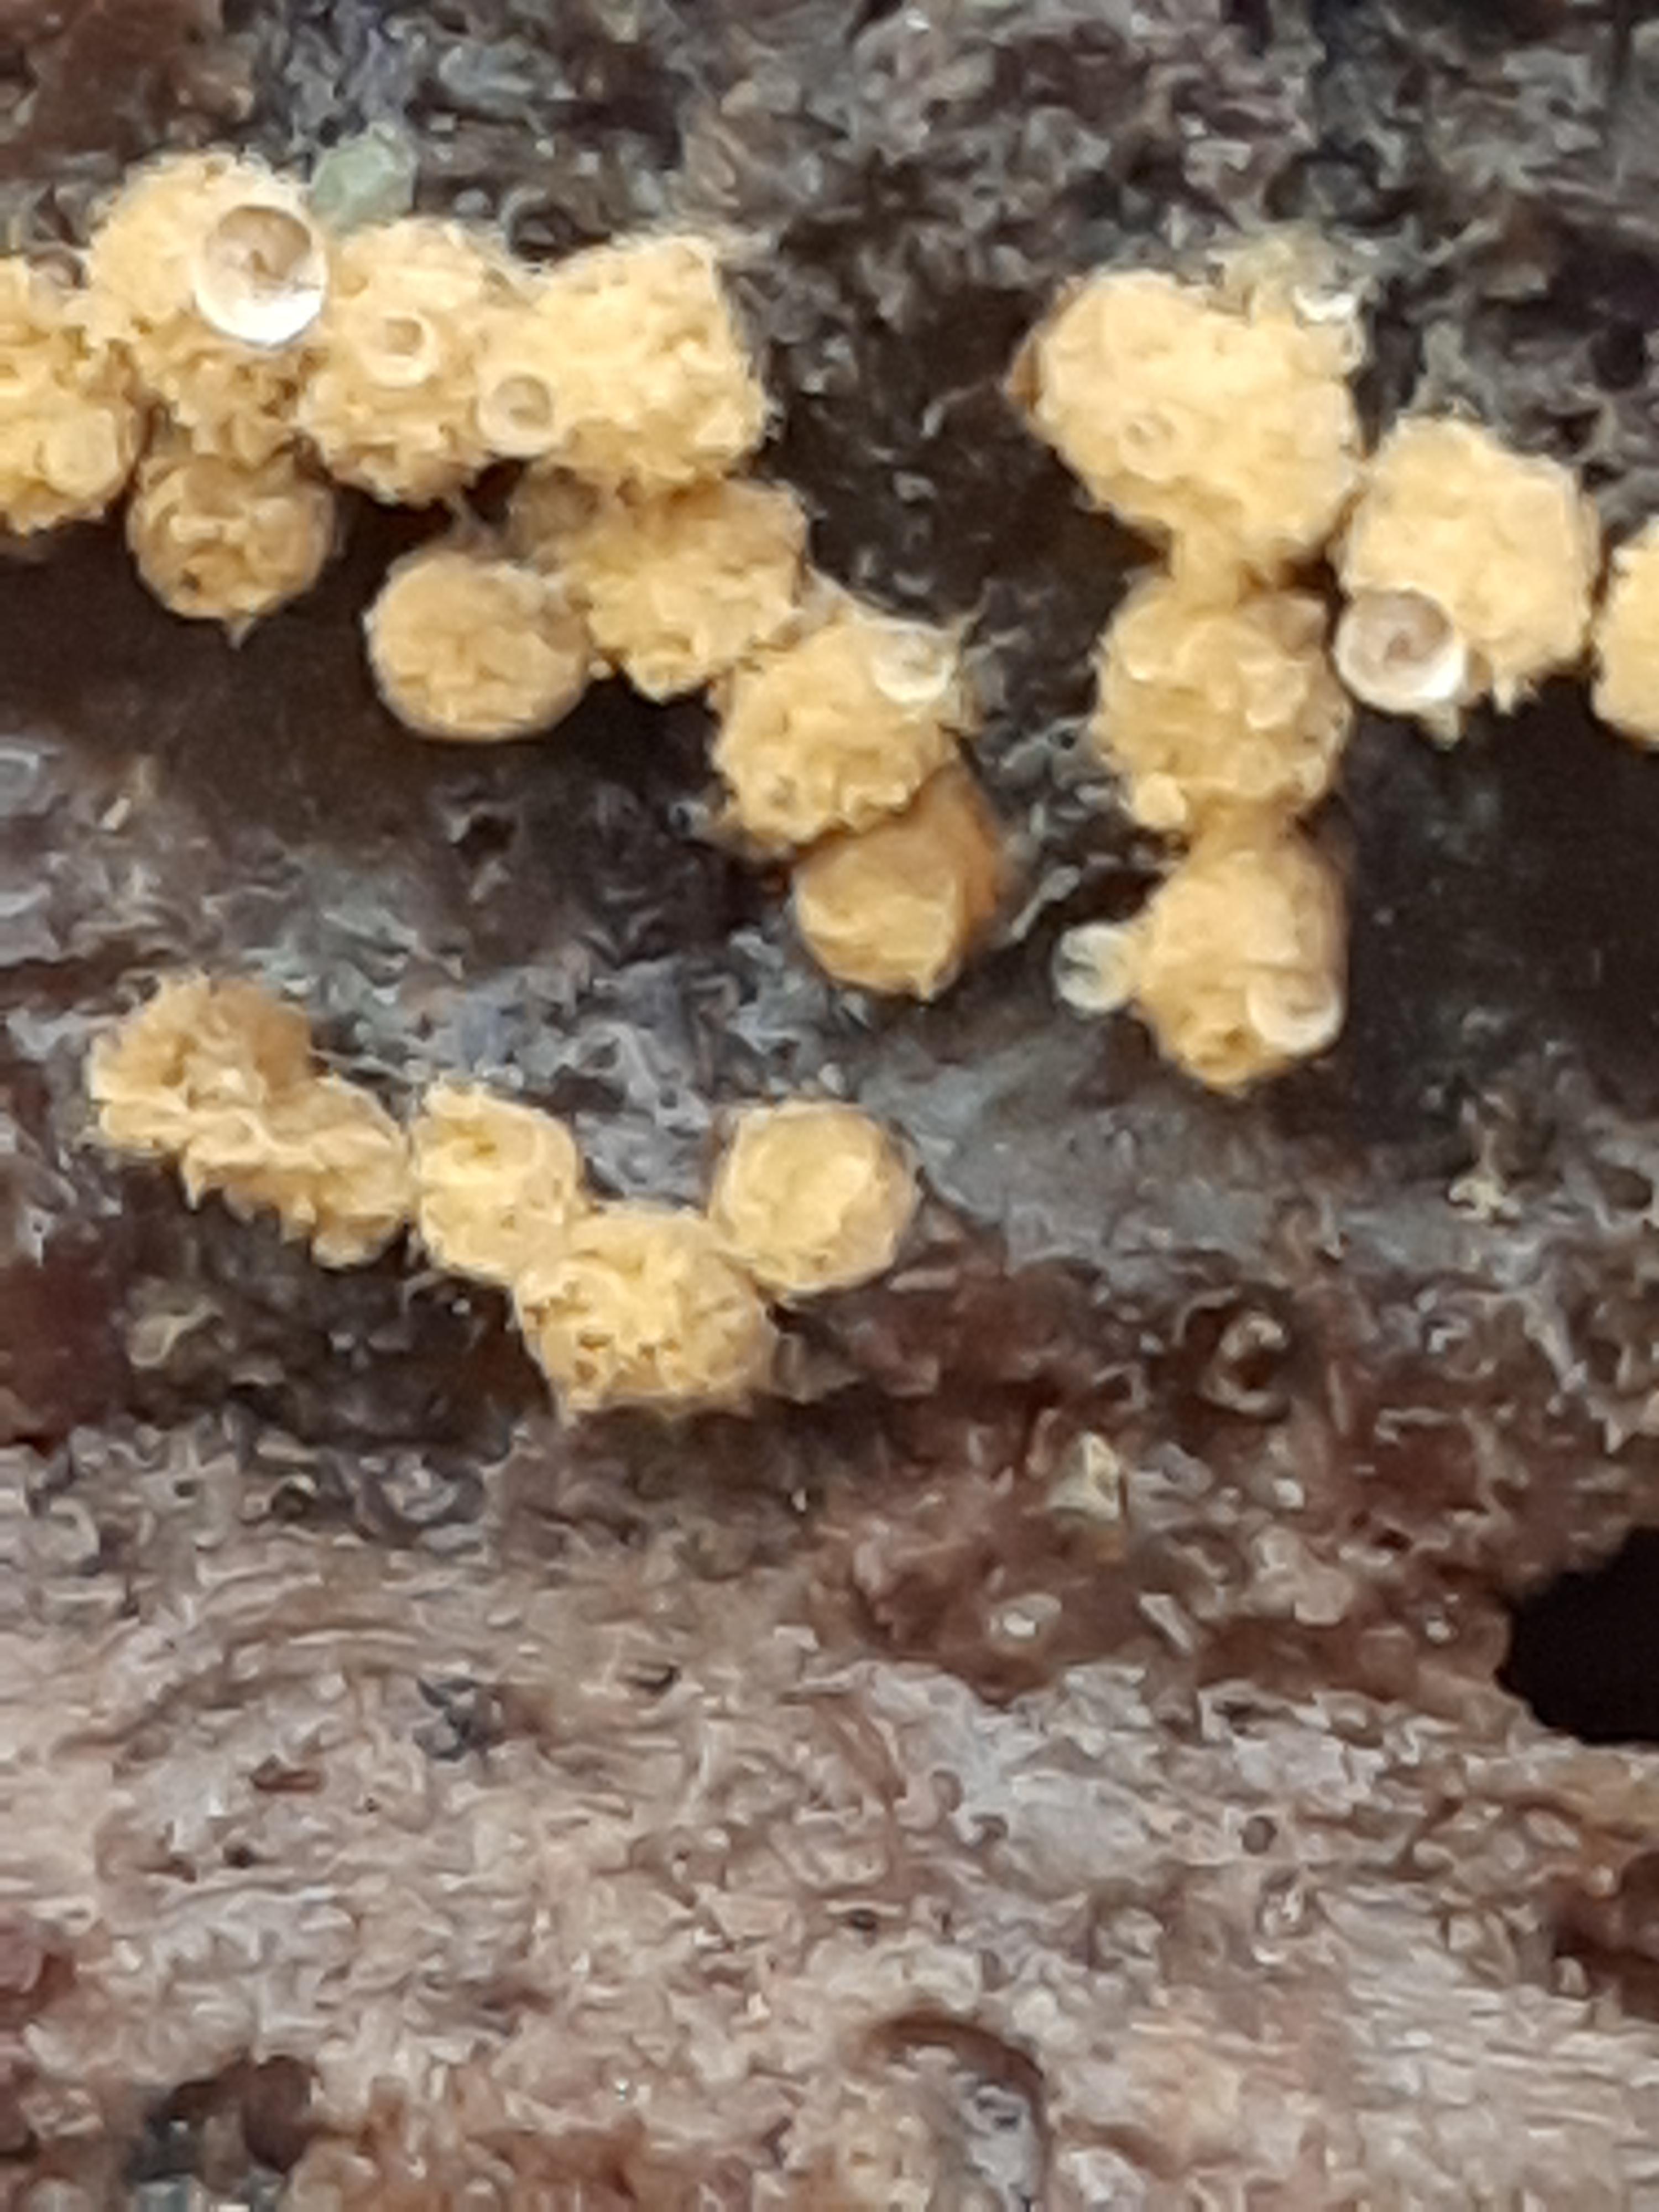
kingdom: Protozoa
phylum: Mycetozoa
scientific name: Mycetozoa
